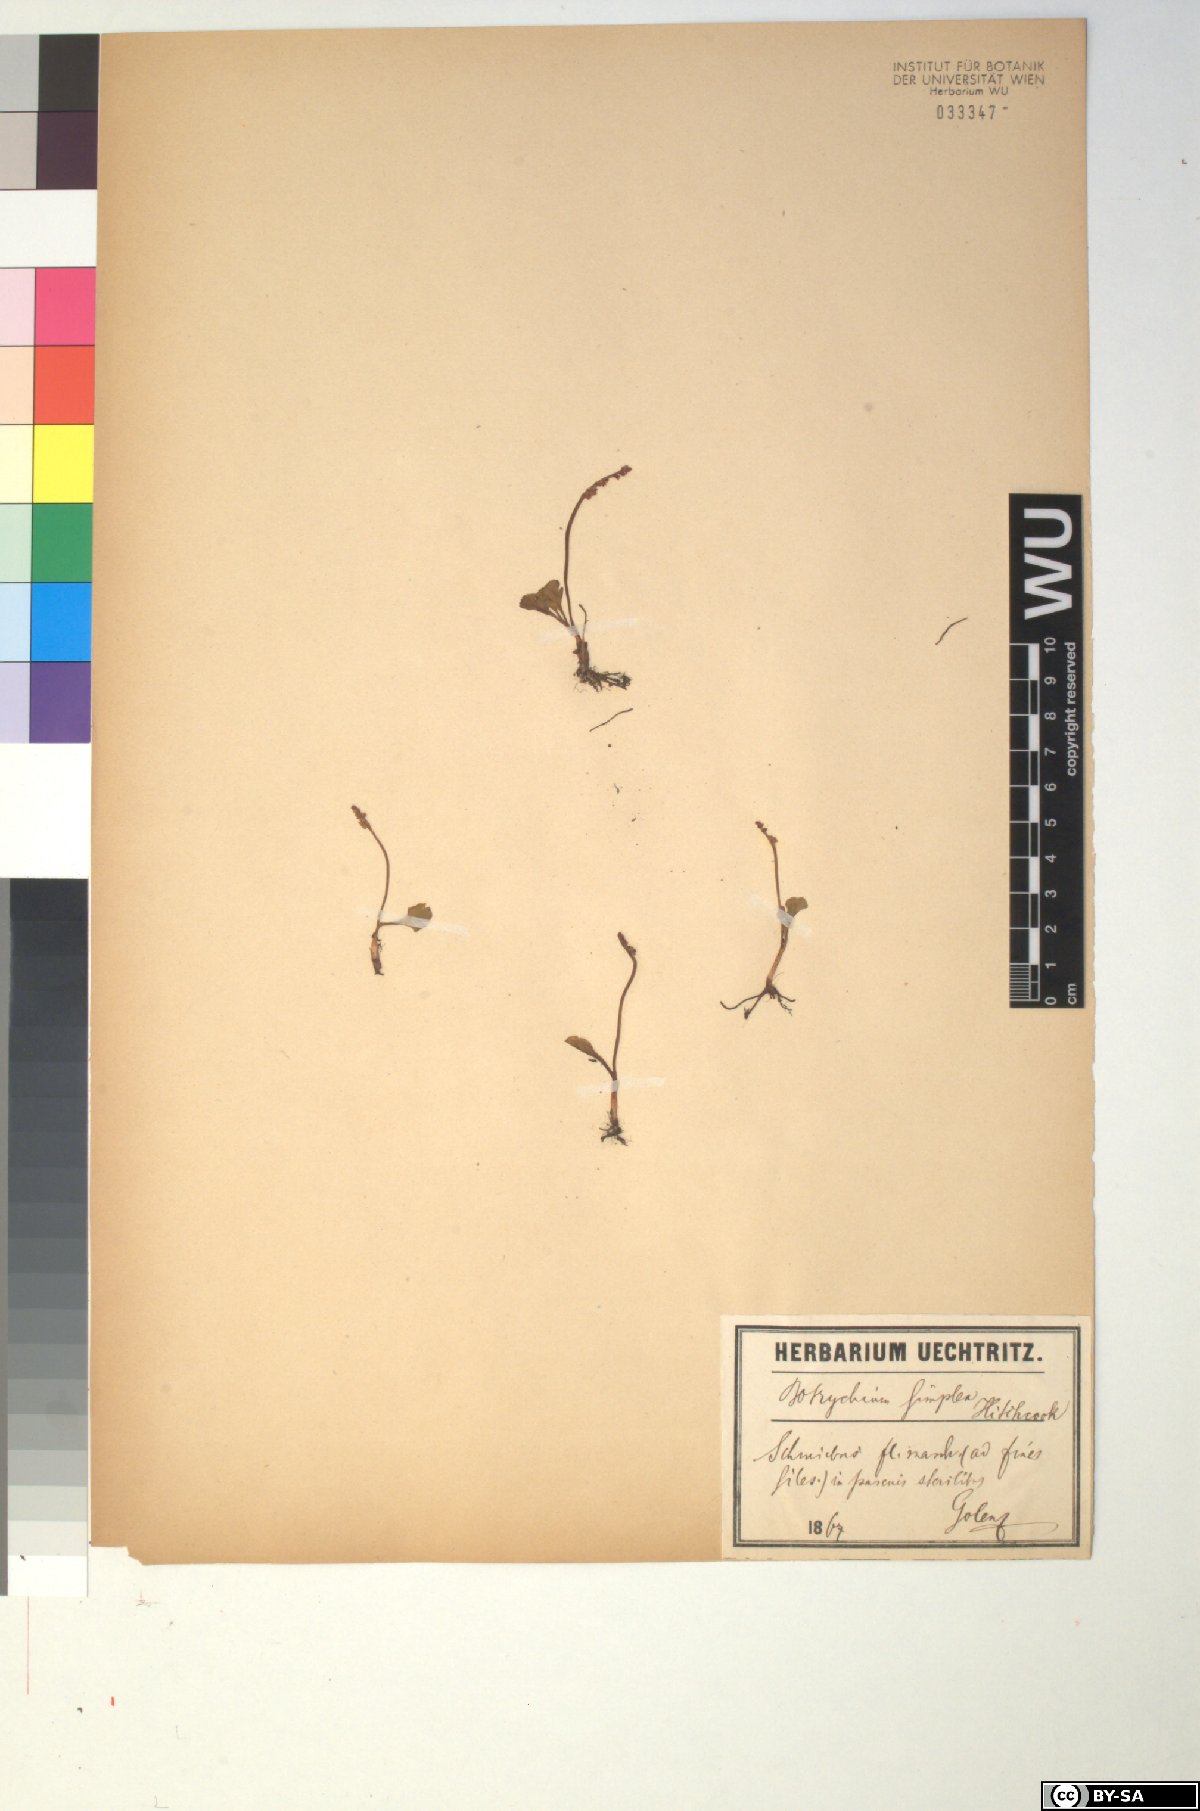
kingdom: Plantae
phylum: Tracheophyta
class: Polypodiopsida
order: Ophioglossales
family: Ophioglossaceae
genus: Botrychium
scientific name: Botrychium simplex
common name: Least moonwort
